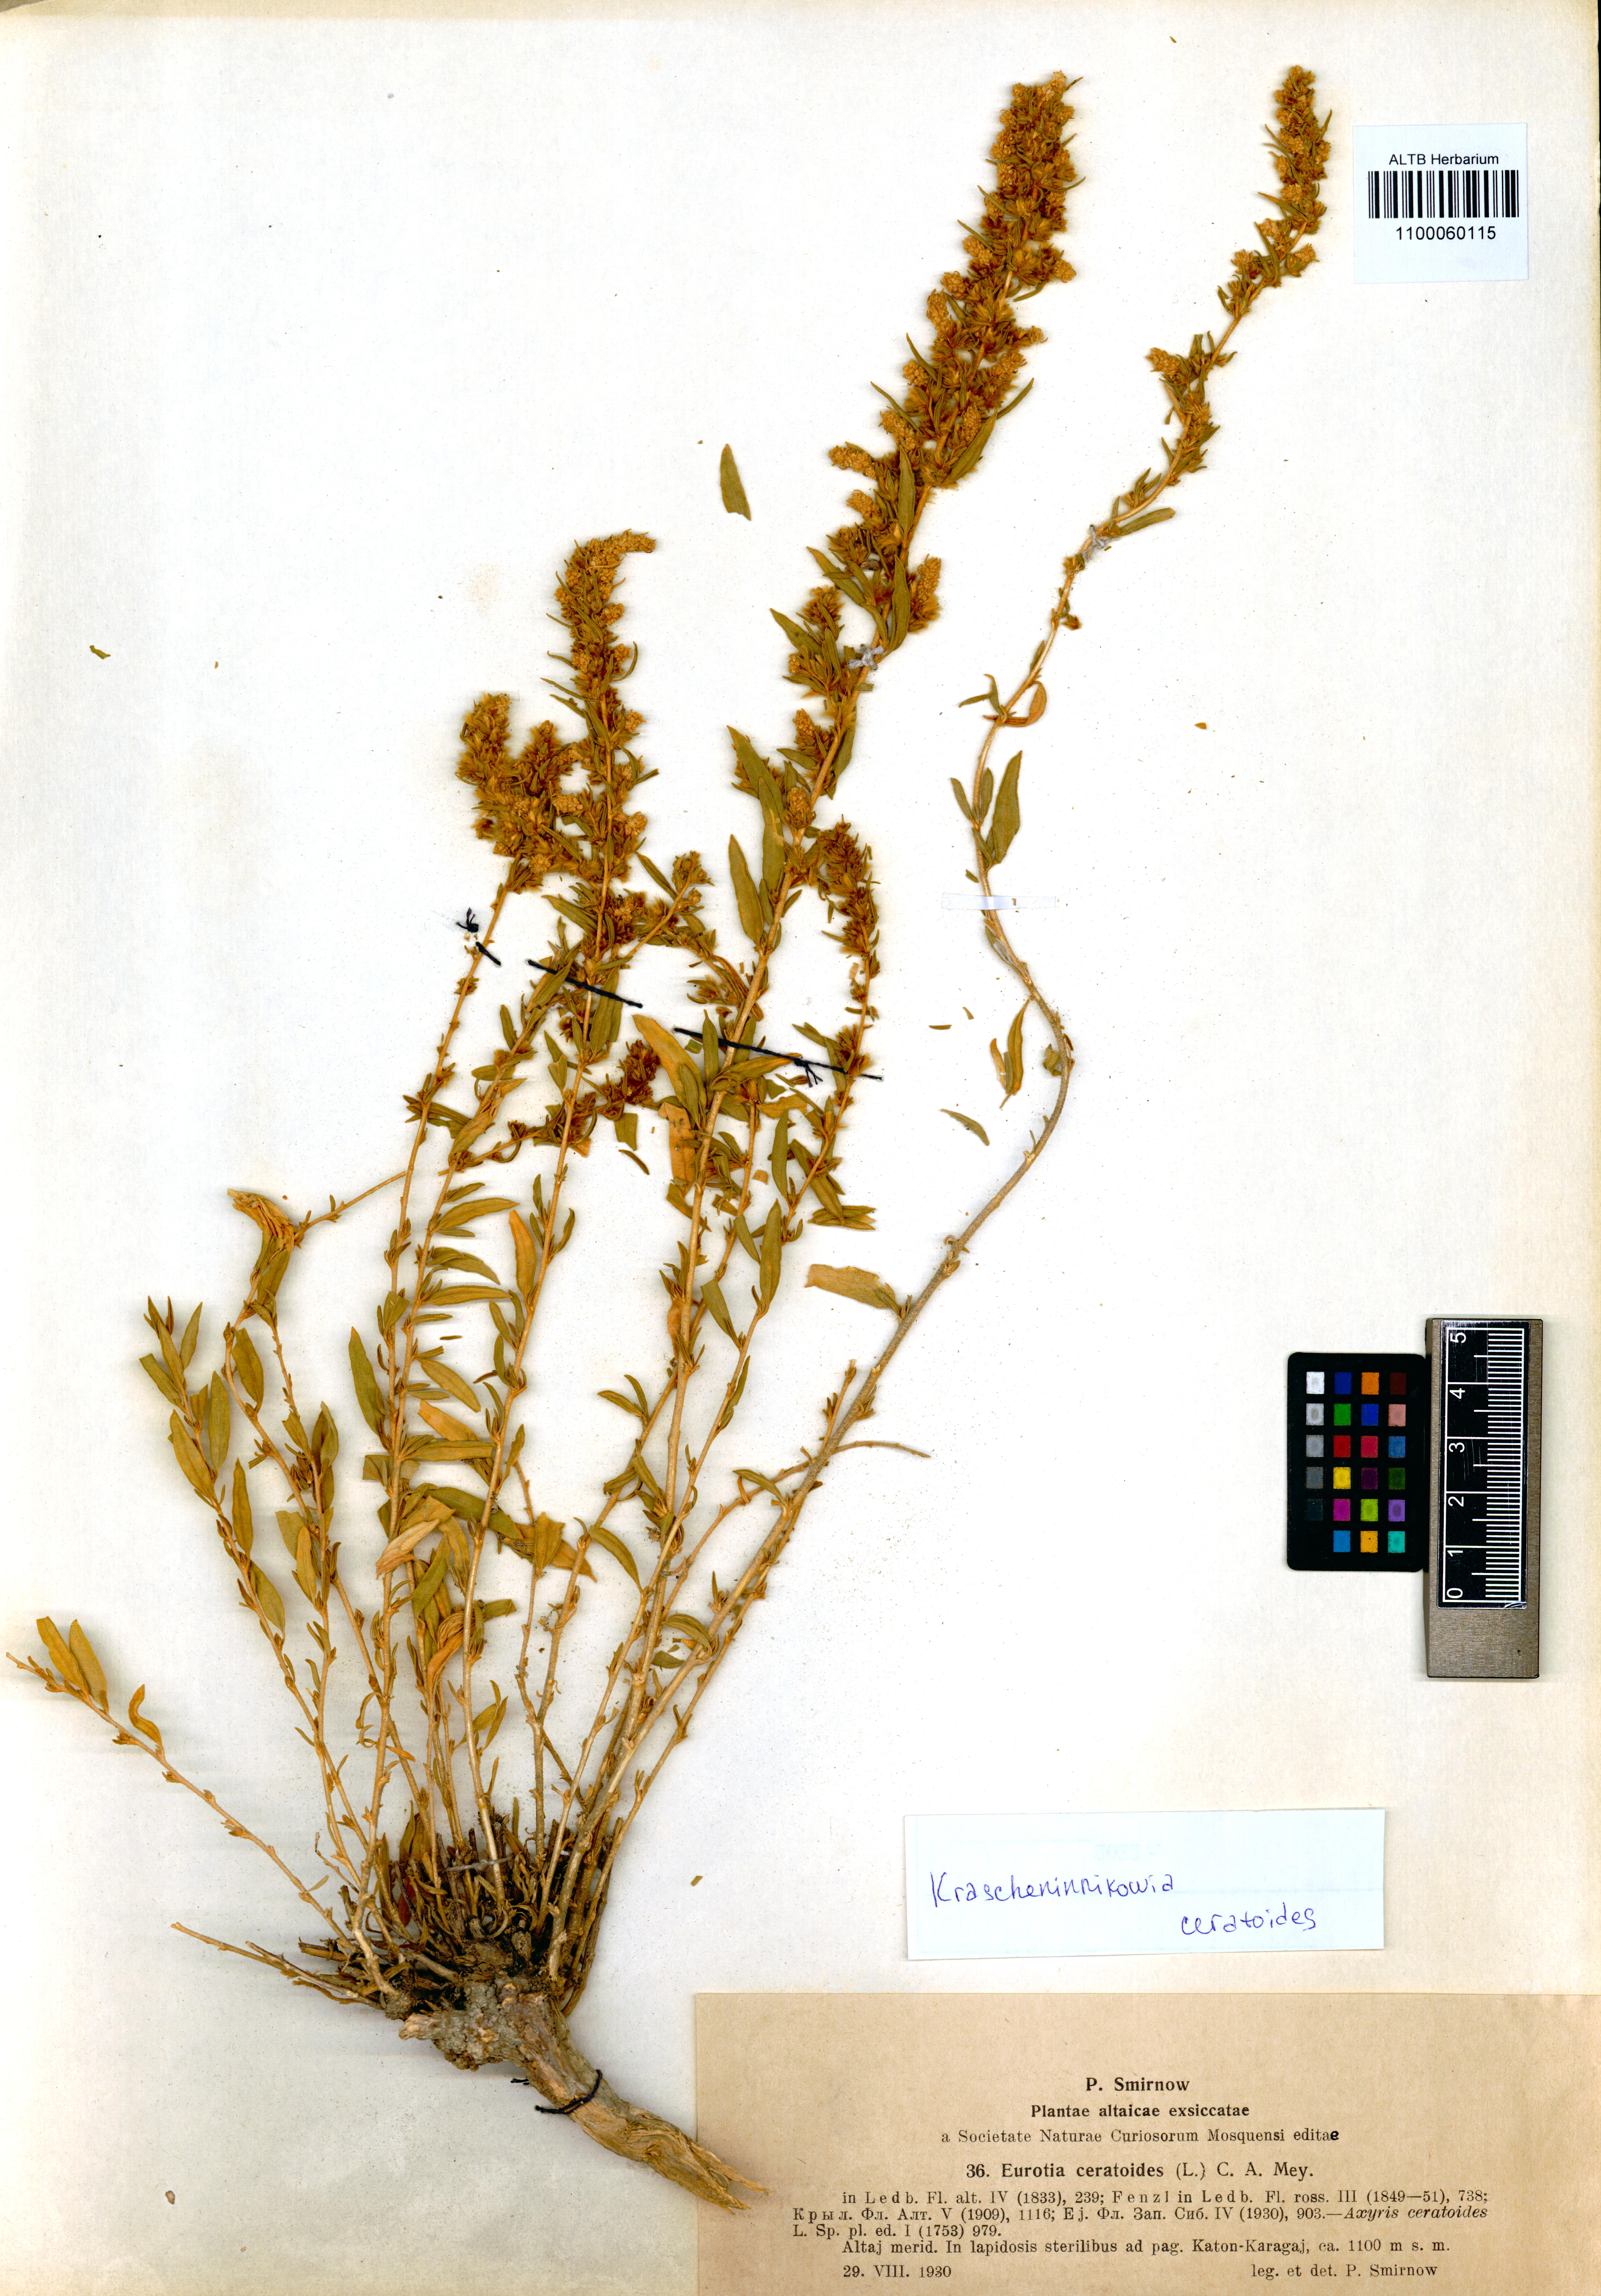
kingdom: Plantae
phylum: Tracheophyta
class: Magnoliopsida
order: Caryophyllales
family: Amaranthaceae
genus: Krascheninnikovia
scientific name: Krascheninnikovia ceratoides
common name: Pamirian winterfat
